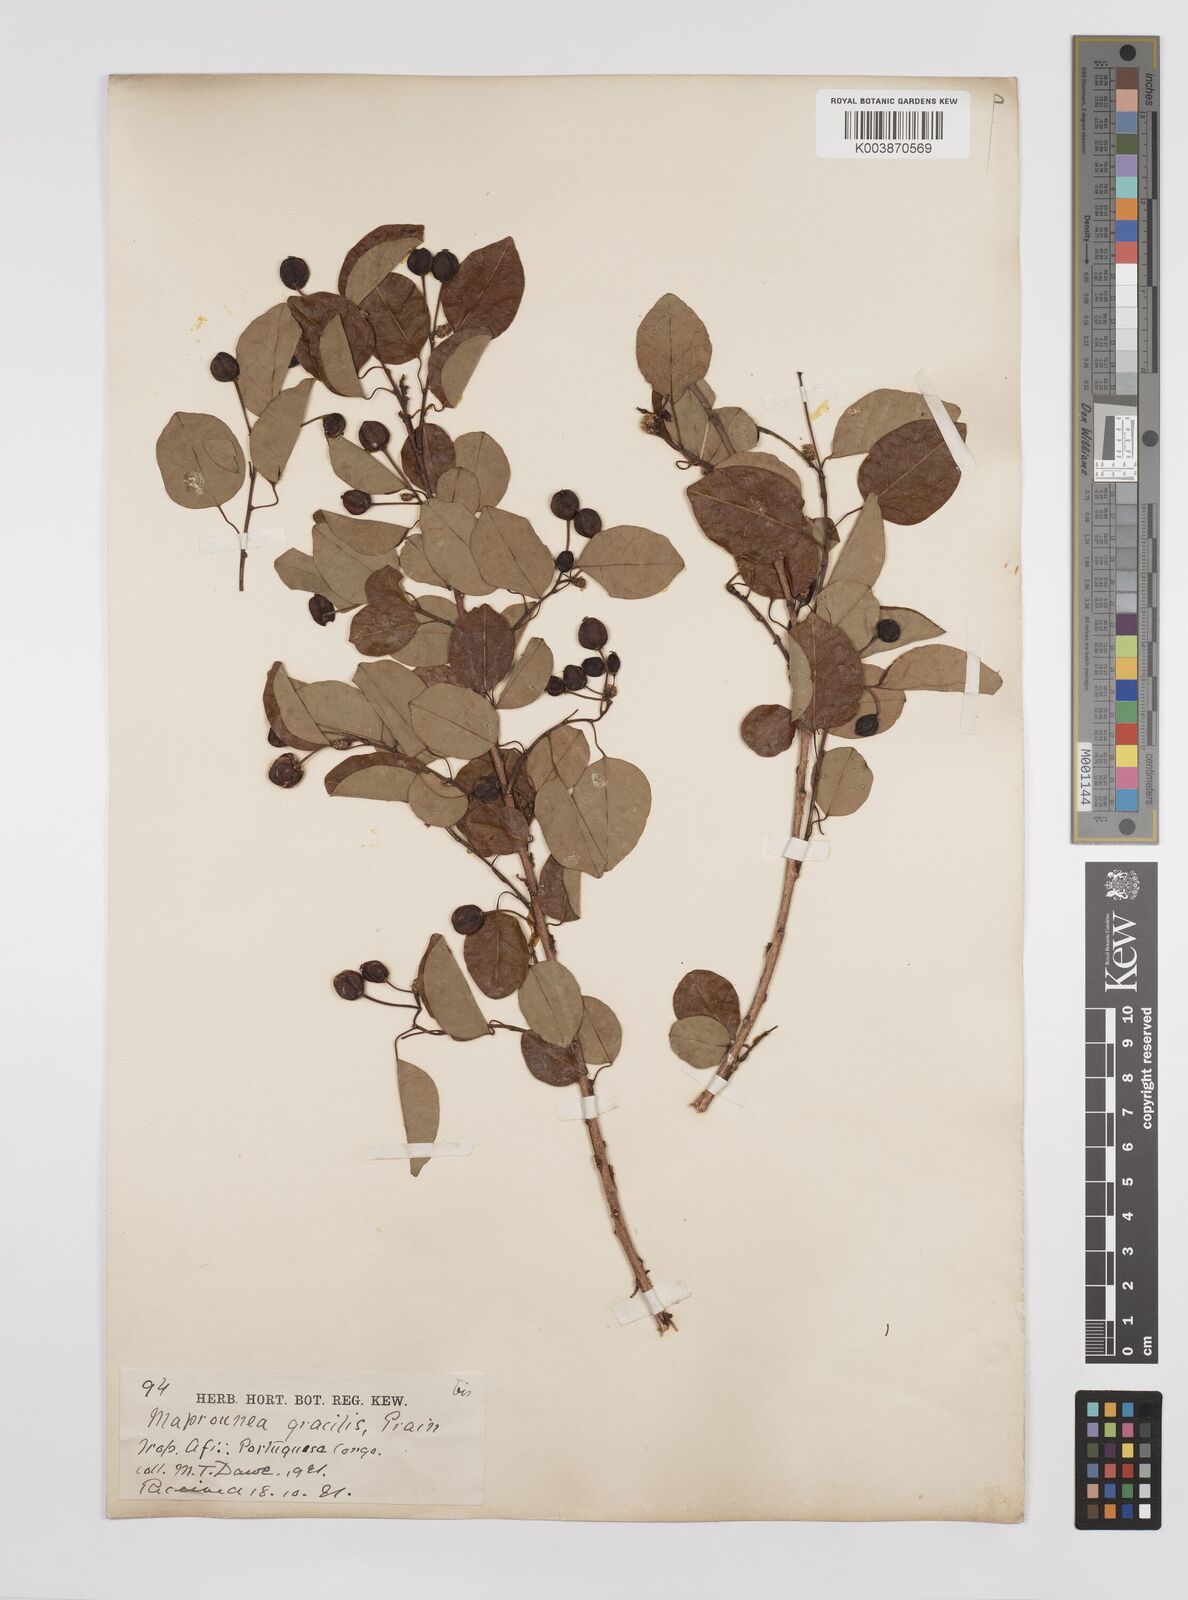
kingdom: Plantae
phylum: Tracheophyta
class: Magnoliopsida
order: Malpighiales
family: Euphorbiaceae
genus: Maprounea
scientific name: Maprounea africana
